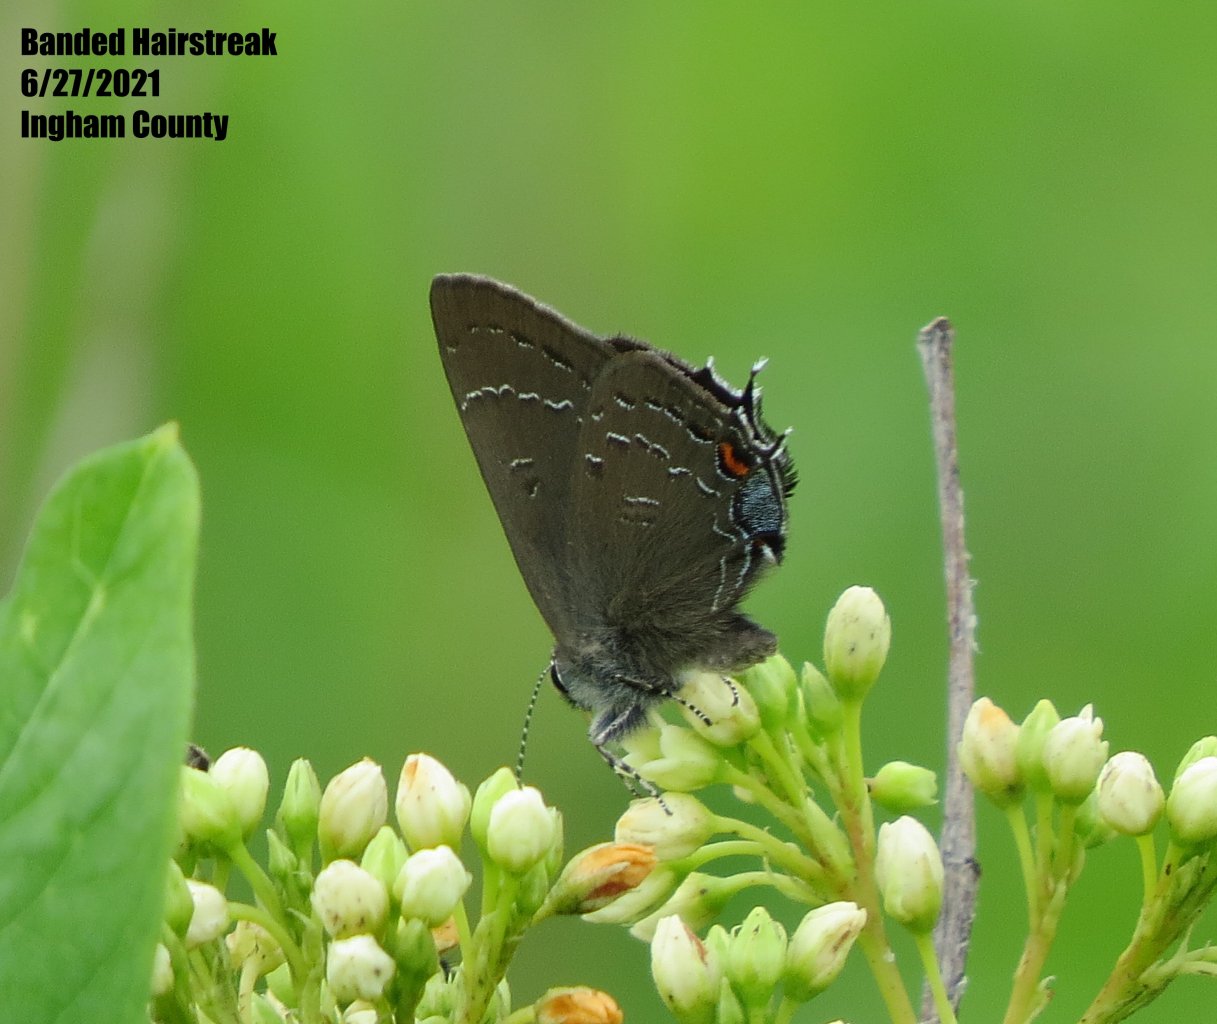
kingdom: Animalia
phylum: Arthropoda
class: Insecta
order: Lepidoptera
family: Lycaenidae
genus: Satyrium
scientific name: Satyrium calanus
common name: Banded Hairstreak
